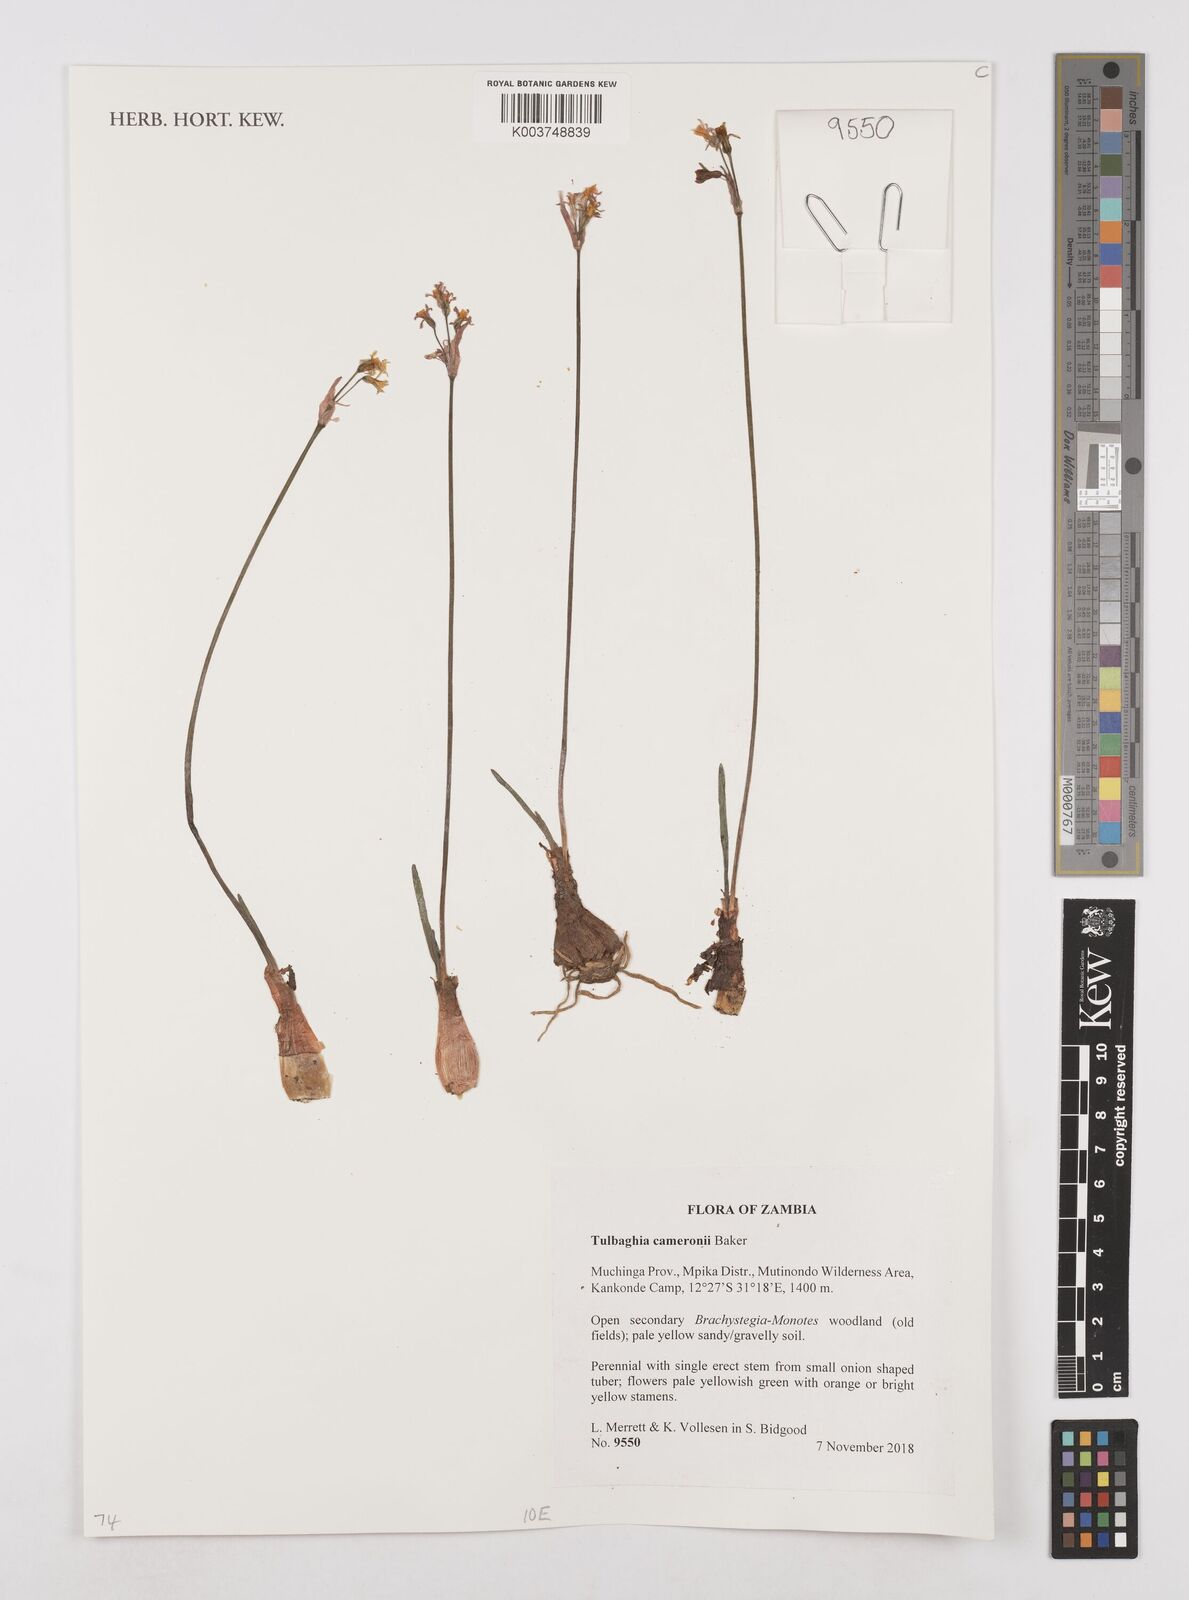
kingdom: Plantae
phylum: Tracheophyta
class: Liliopsida
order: Asparagales
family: Amaryllidaceae
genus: Tulbaghia
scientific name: Tulbaghia cameronii
